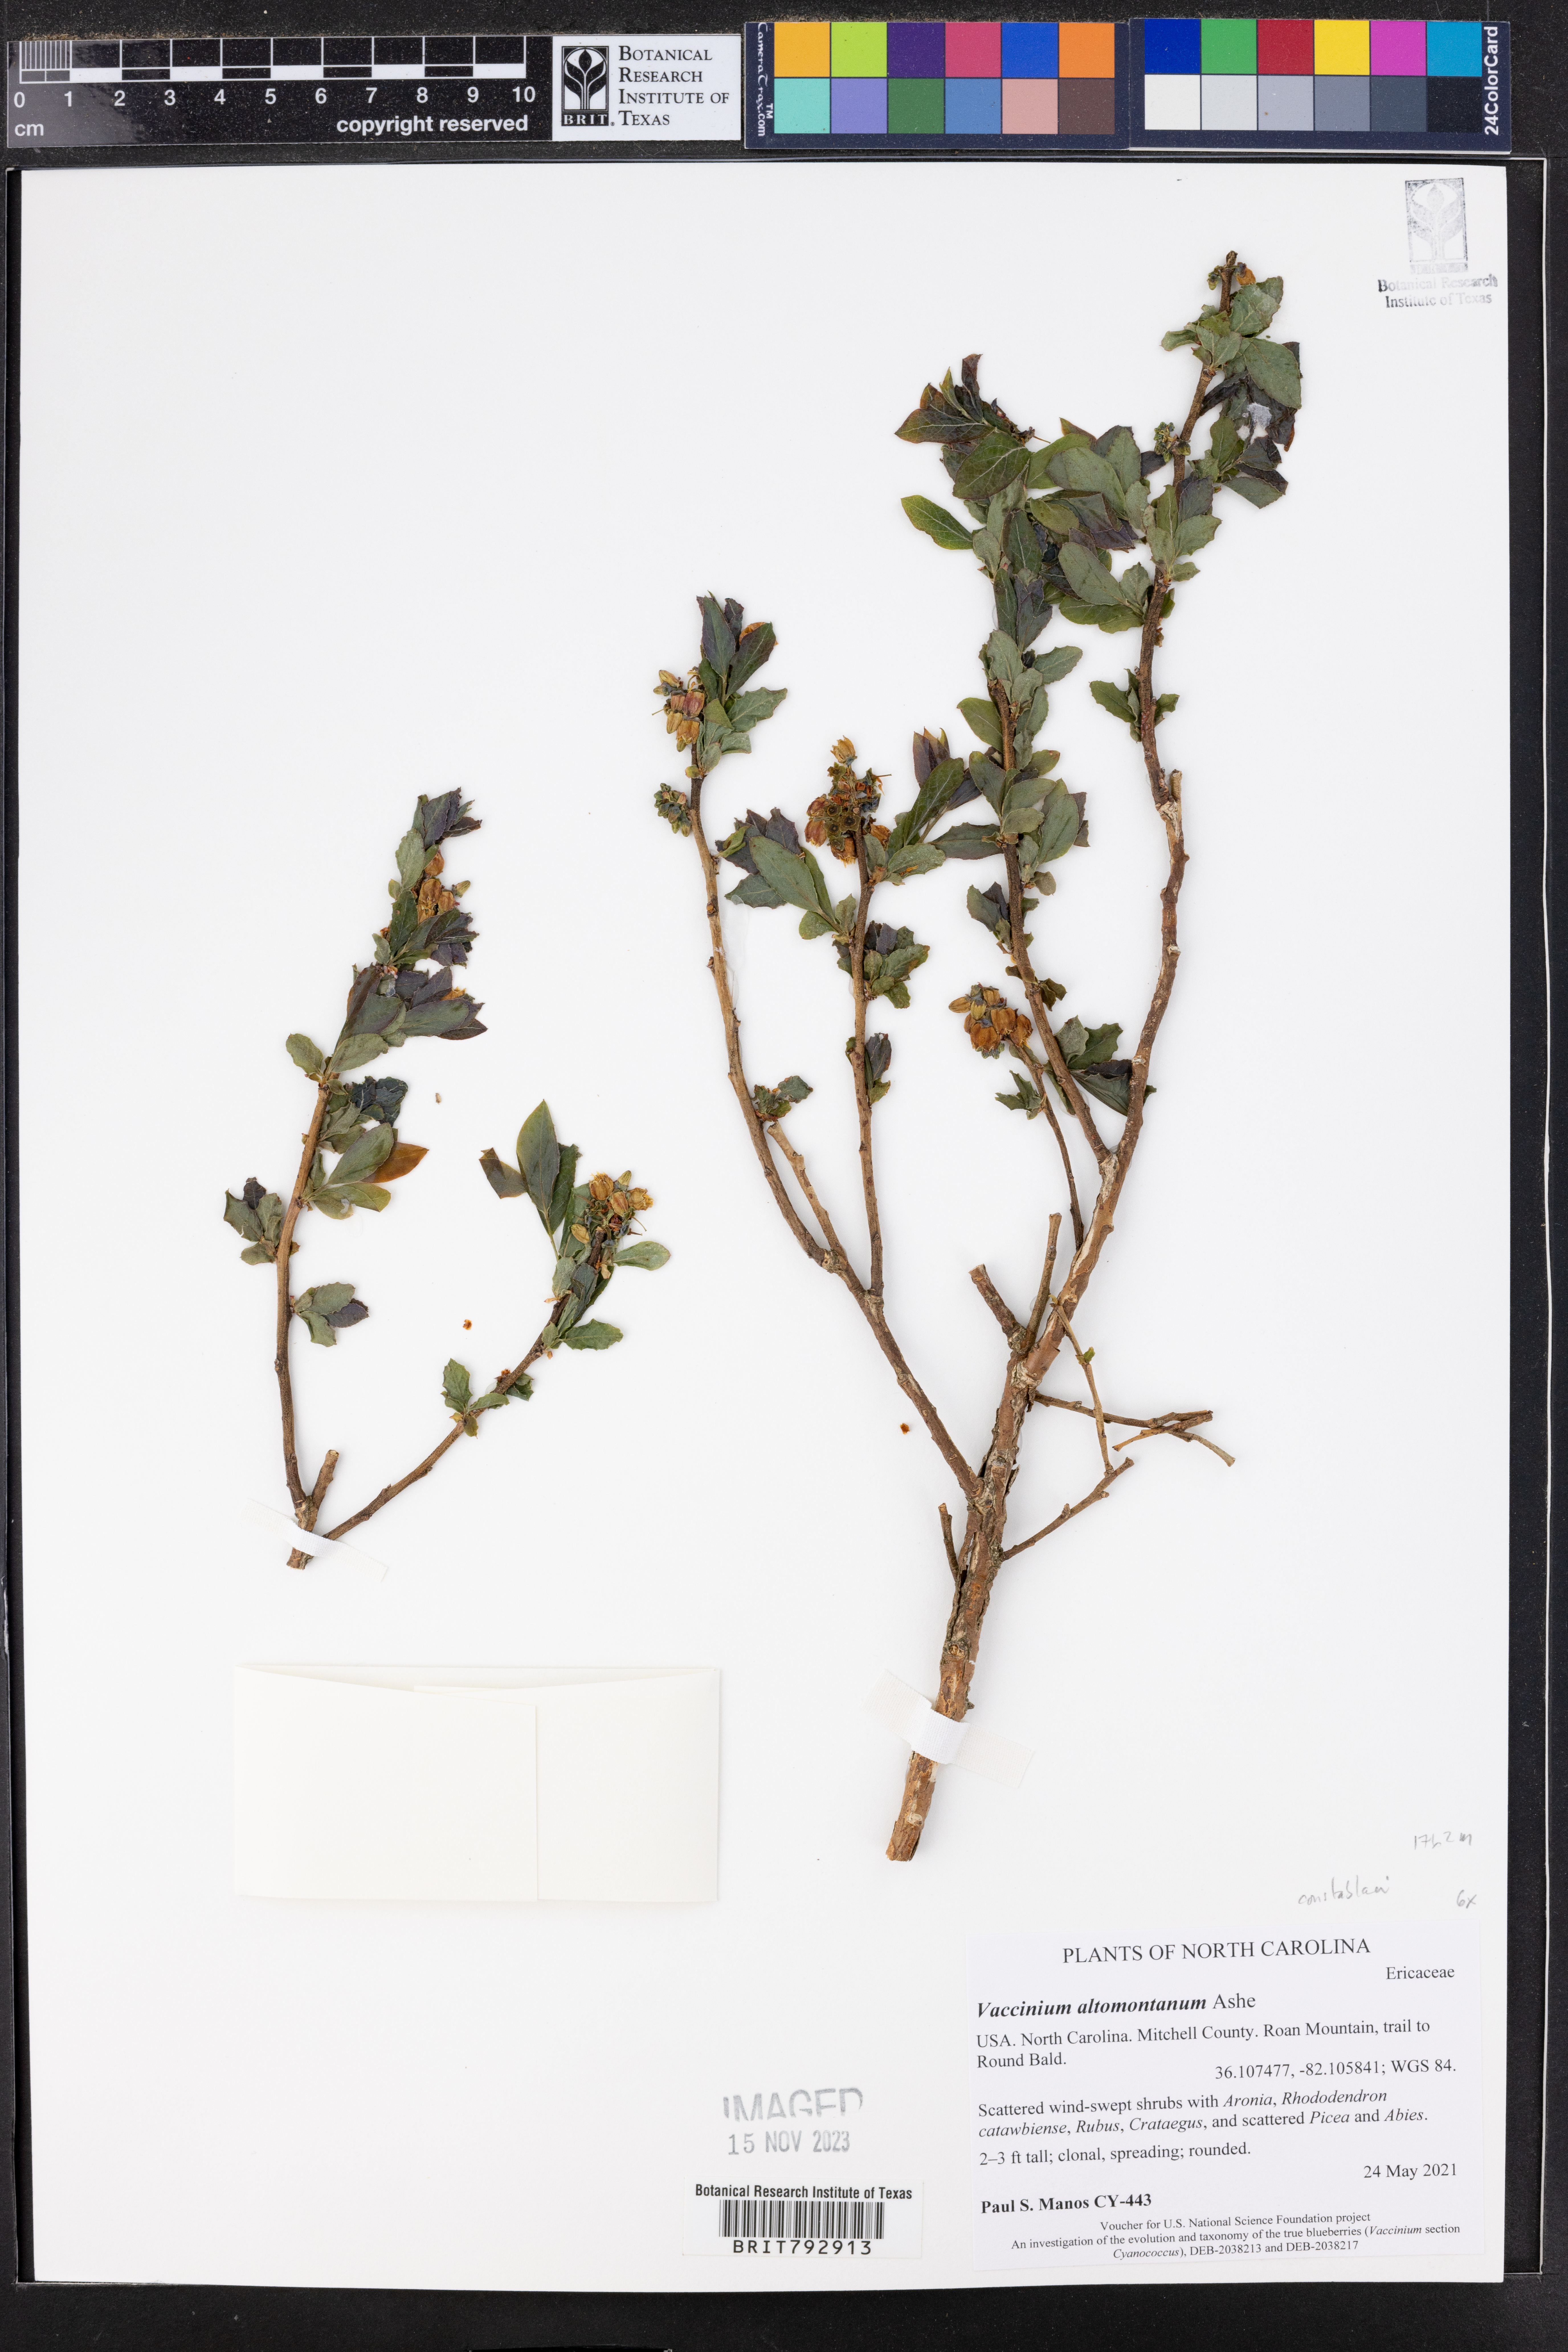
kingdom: Plantae
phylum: Tracheophyta
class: Magnoliopsida
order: Ericales
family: Ericaceae
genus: Vaccinium
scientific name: Vaccinium pallidum
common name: Blue ridge blueberry
